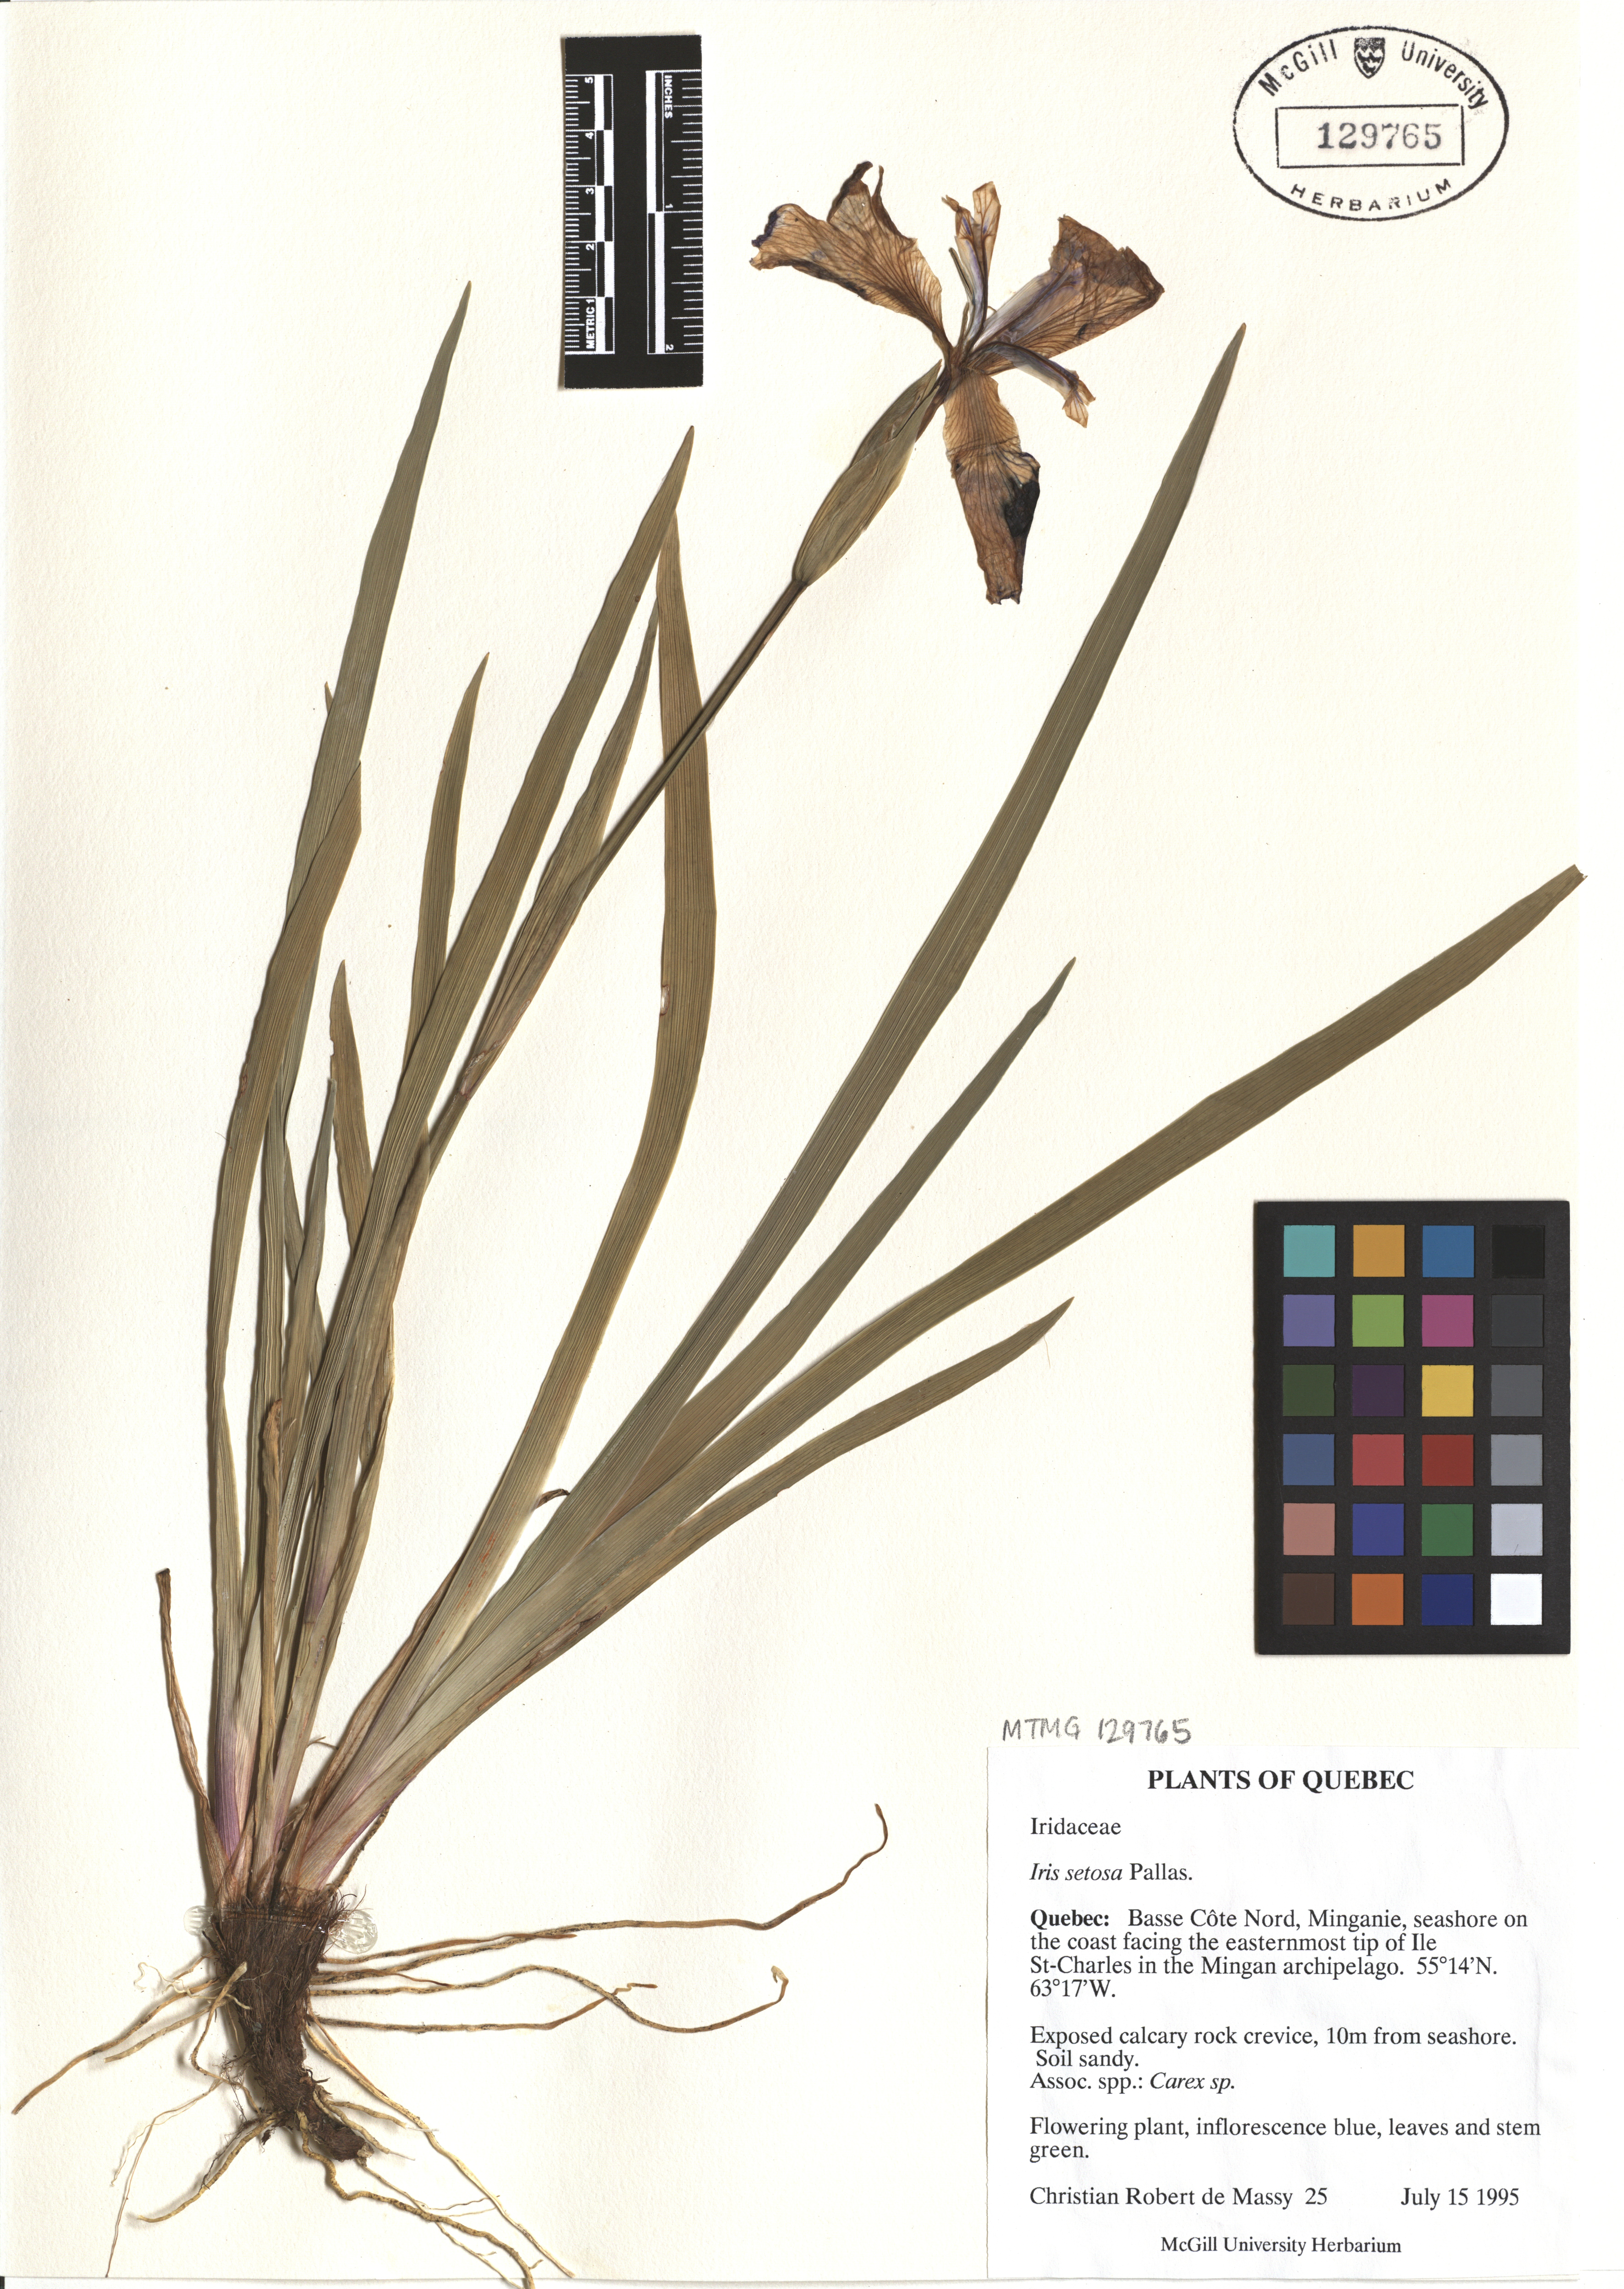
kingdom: Plantae
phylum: Tracheophyta
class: Liliopsida
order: Asparagales
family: Iridaceae
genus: Iris
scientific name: Iris setosa
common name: Arctic blue flag
